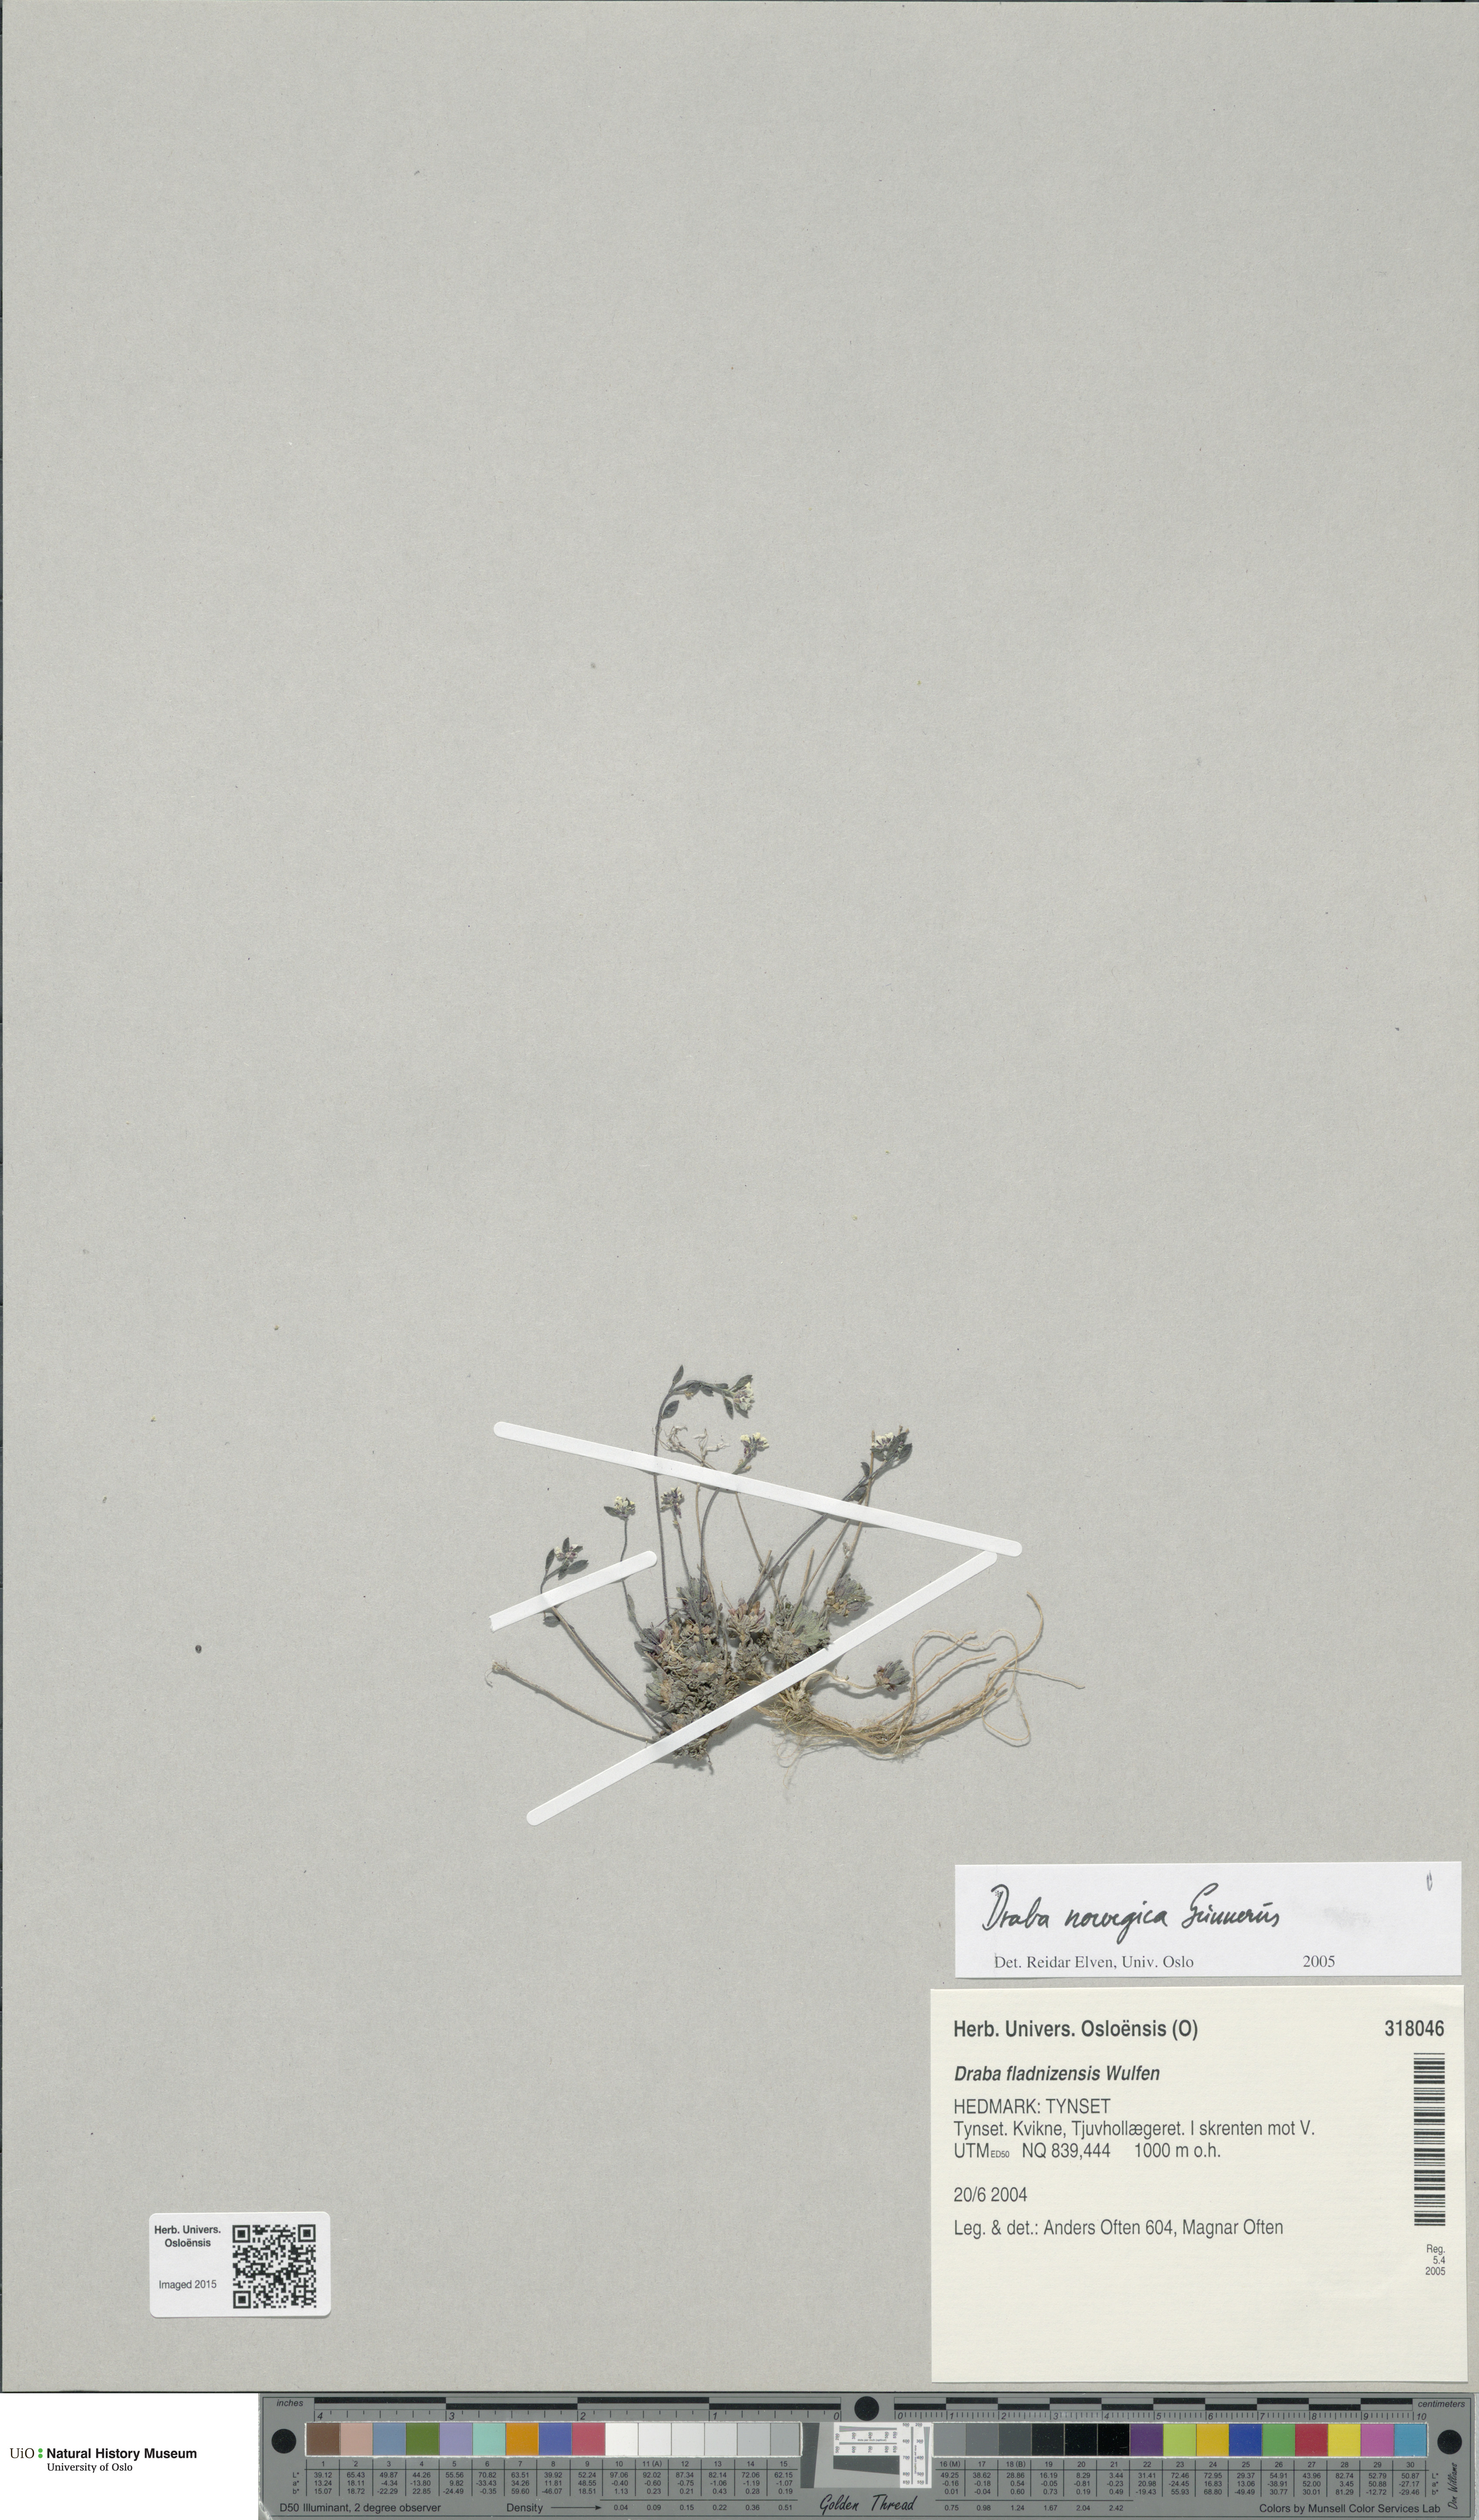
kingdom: Plantae
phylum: Tracheophyta
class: Magnoliopsida
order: Brassicales
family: Brassicaceae
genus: Draba
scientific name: Draba norvegica
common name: Rock whitlowgrass
